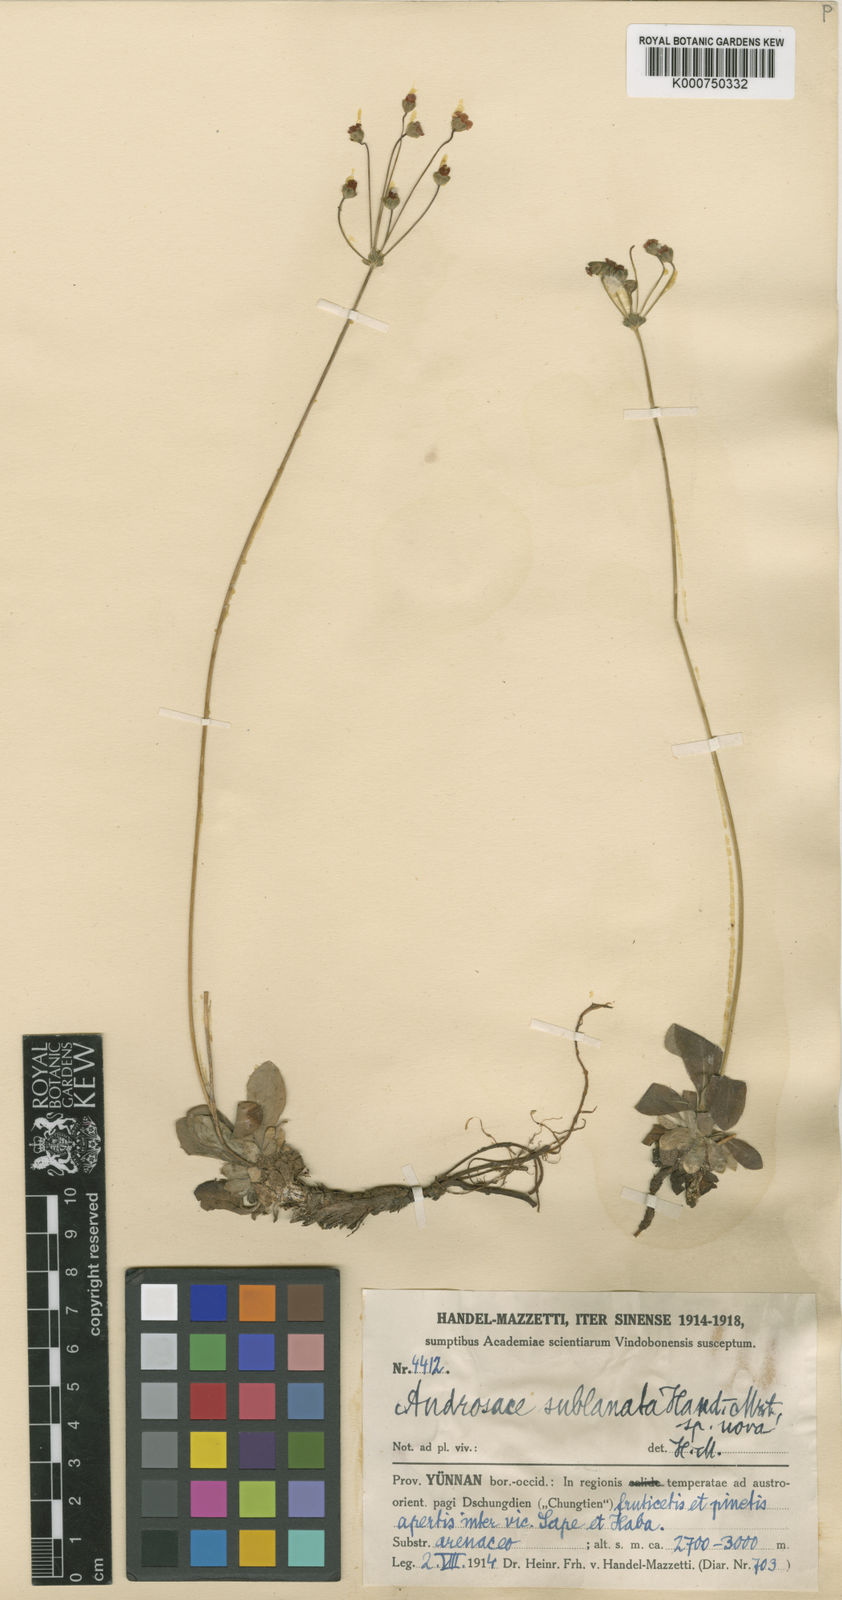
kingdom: Plantae
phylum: Tracheophyta
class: Magnoliopsida
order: Ericales
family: Primulaceae
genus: Androsace
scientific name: Androsace sublanata
